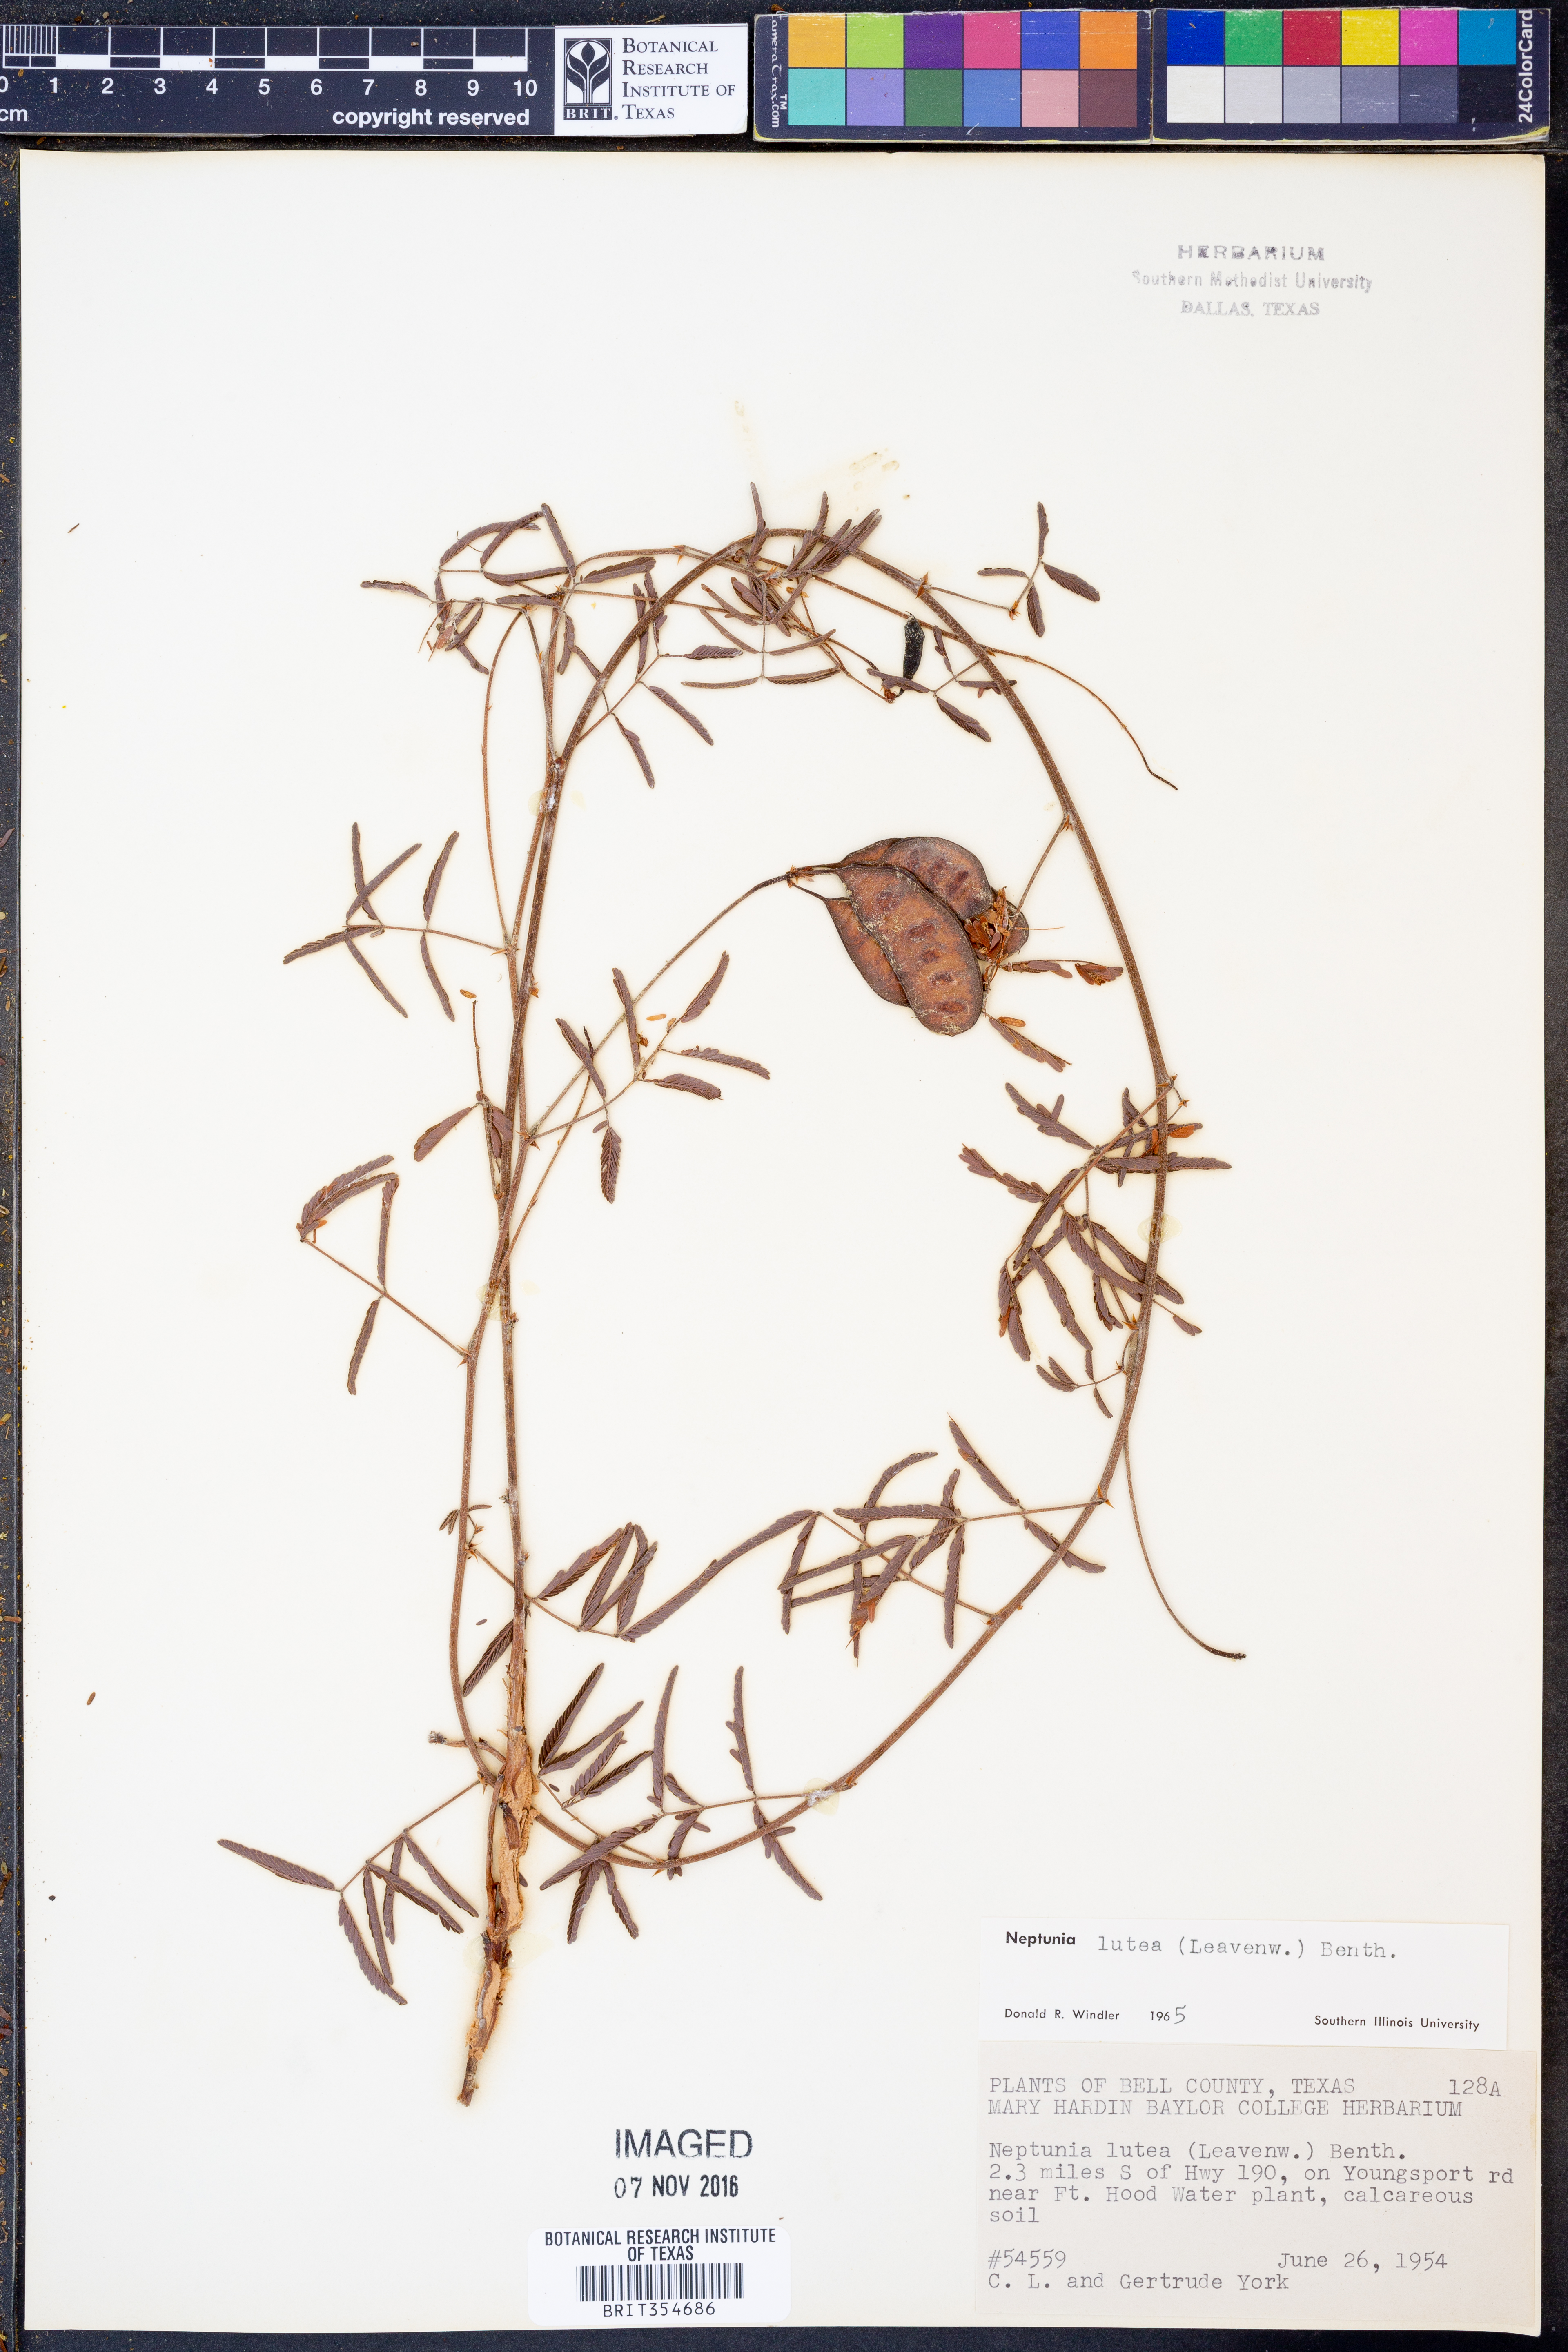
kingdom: Plantae
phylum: Tracheophyta
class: Magnoliopsida
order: Fabales
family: Fabaceae
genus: Neptunia
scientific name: Neptunia lutea
